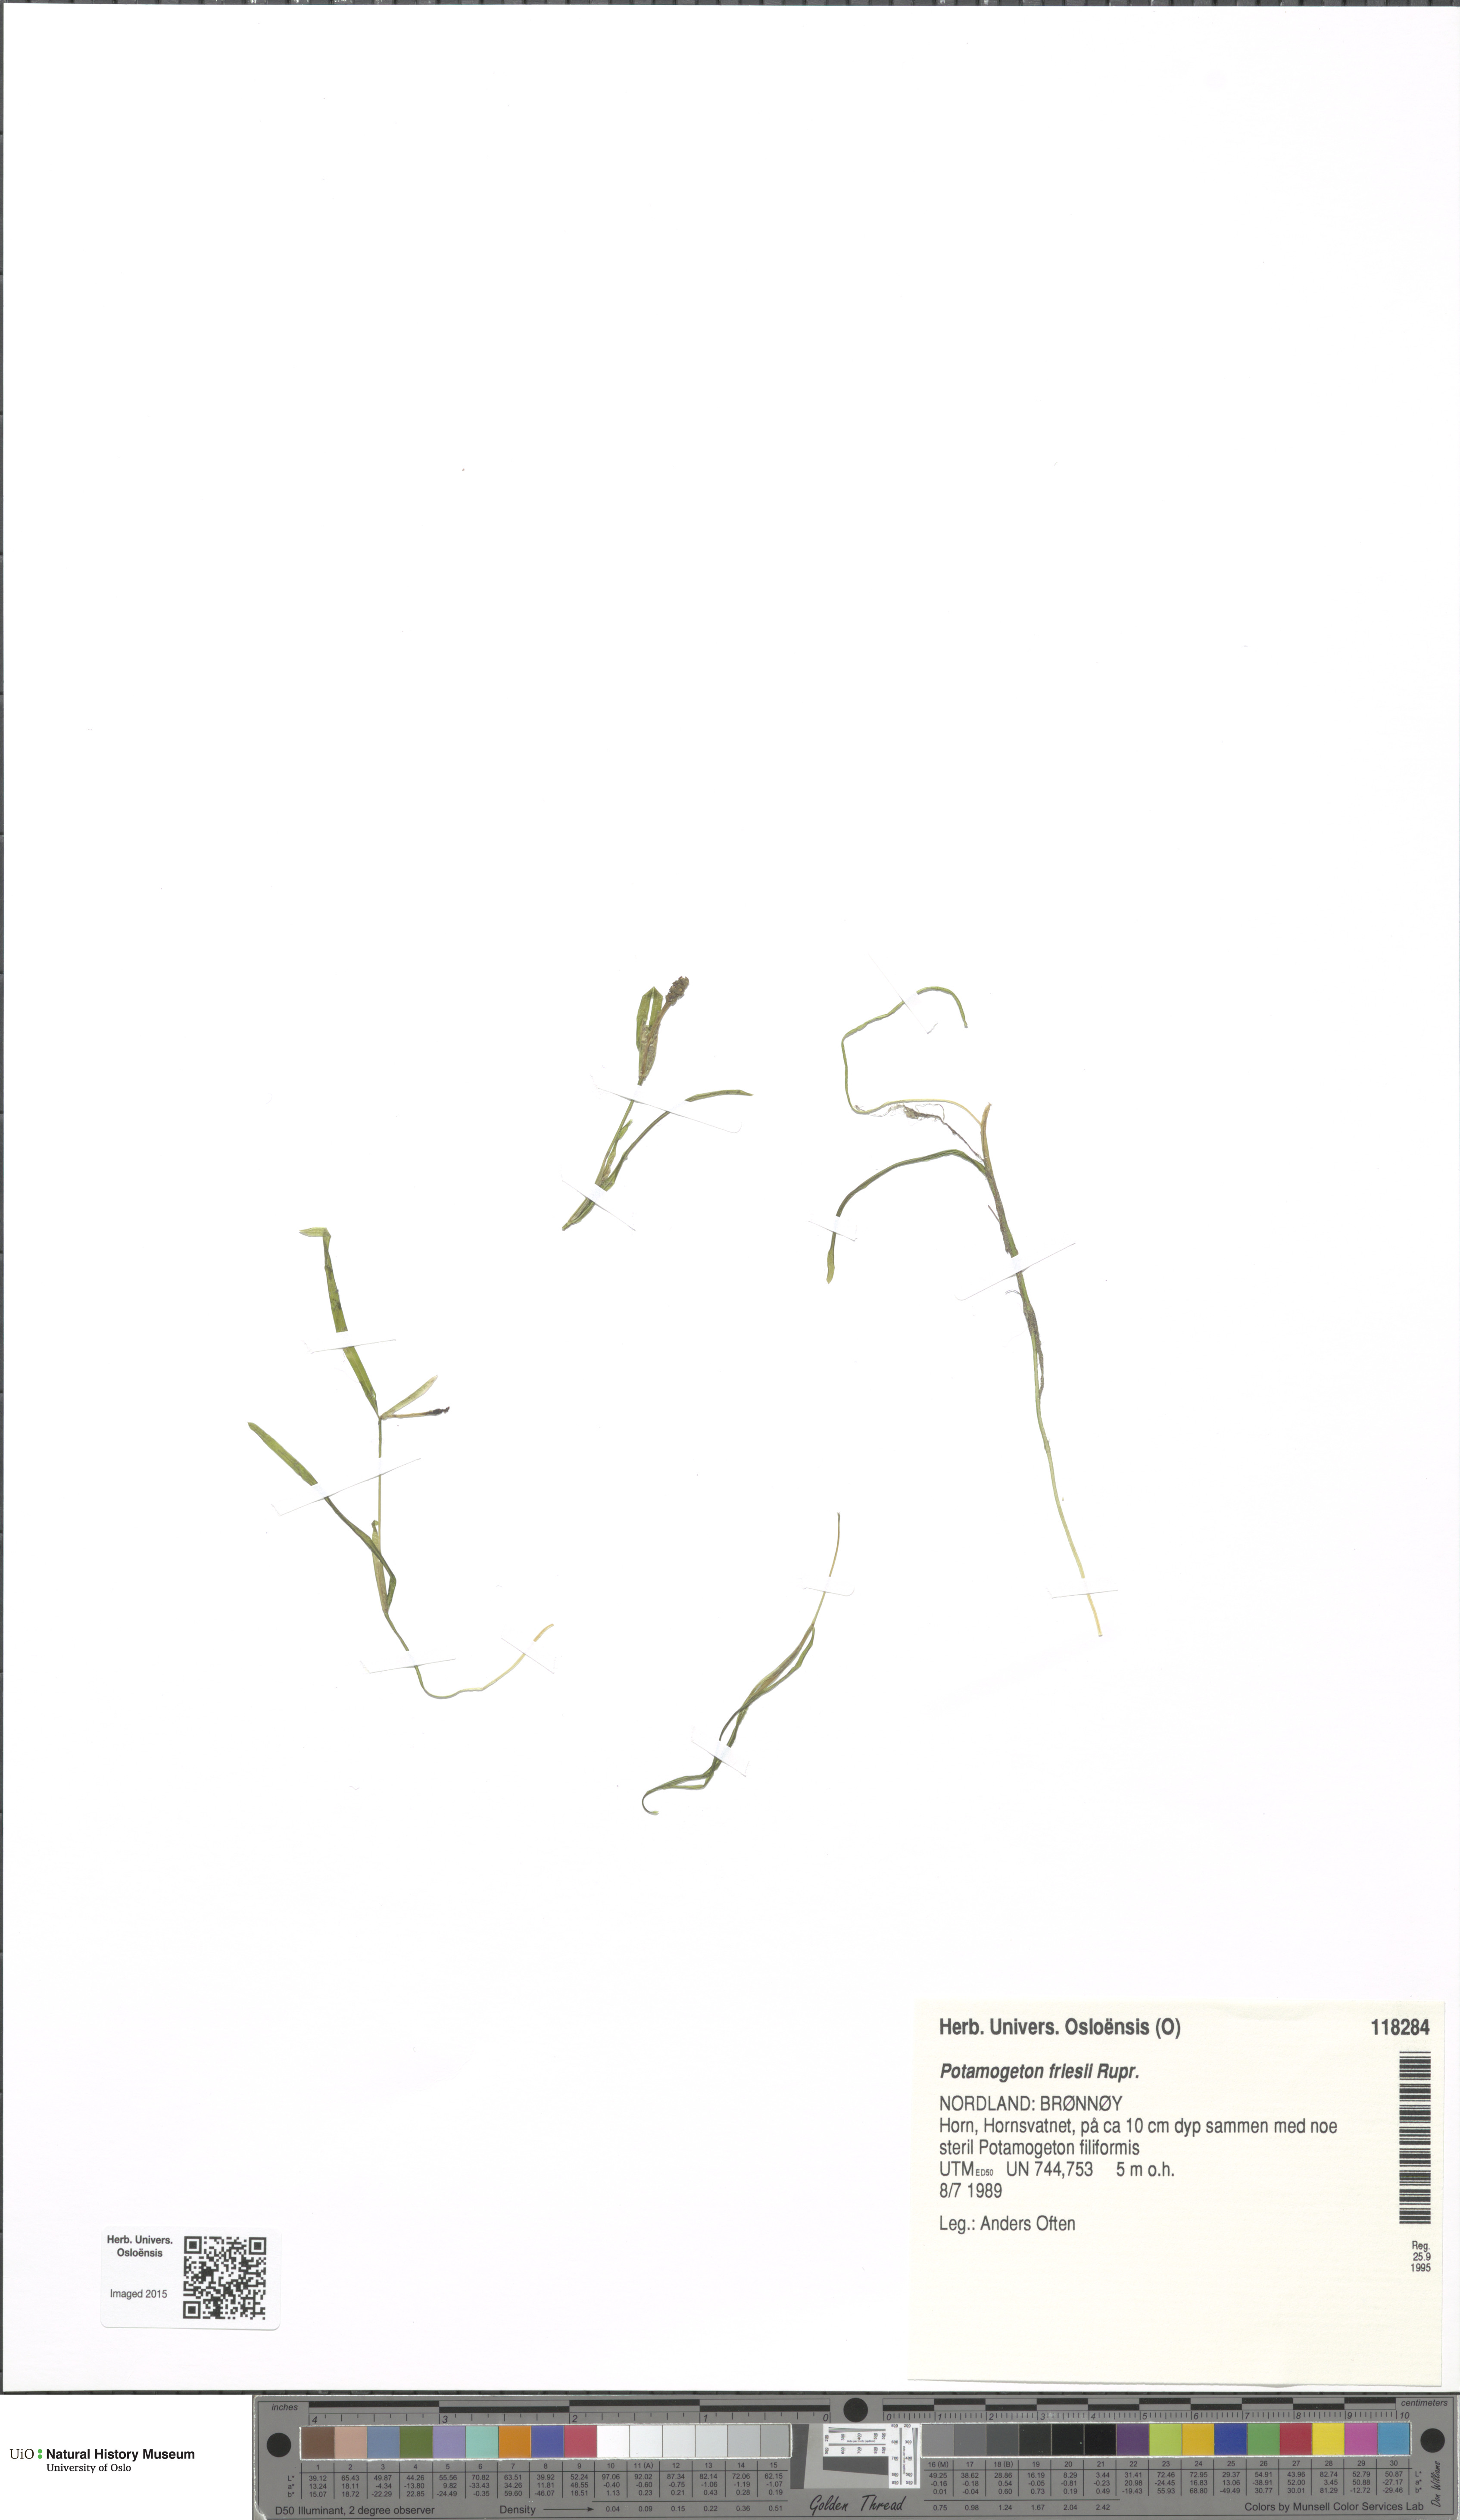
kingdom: Plantae
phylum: Tracheophyta
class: Liliopsida
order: Alismatales
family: Potamogetonaceae
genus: Potamogeton
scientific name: Potamogeton friesii
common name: Flat-stalked pondweed
